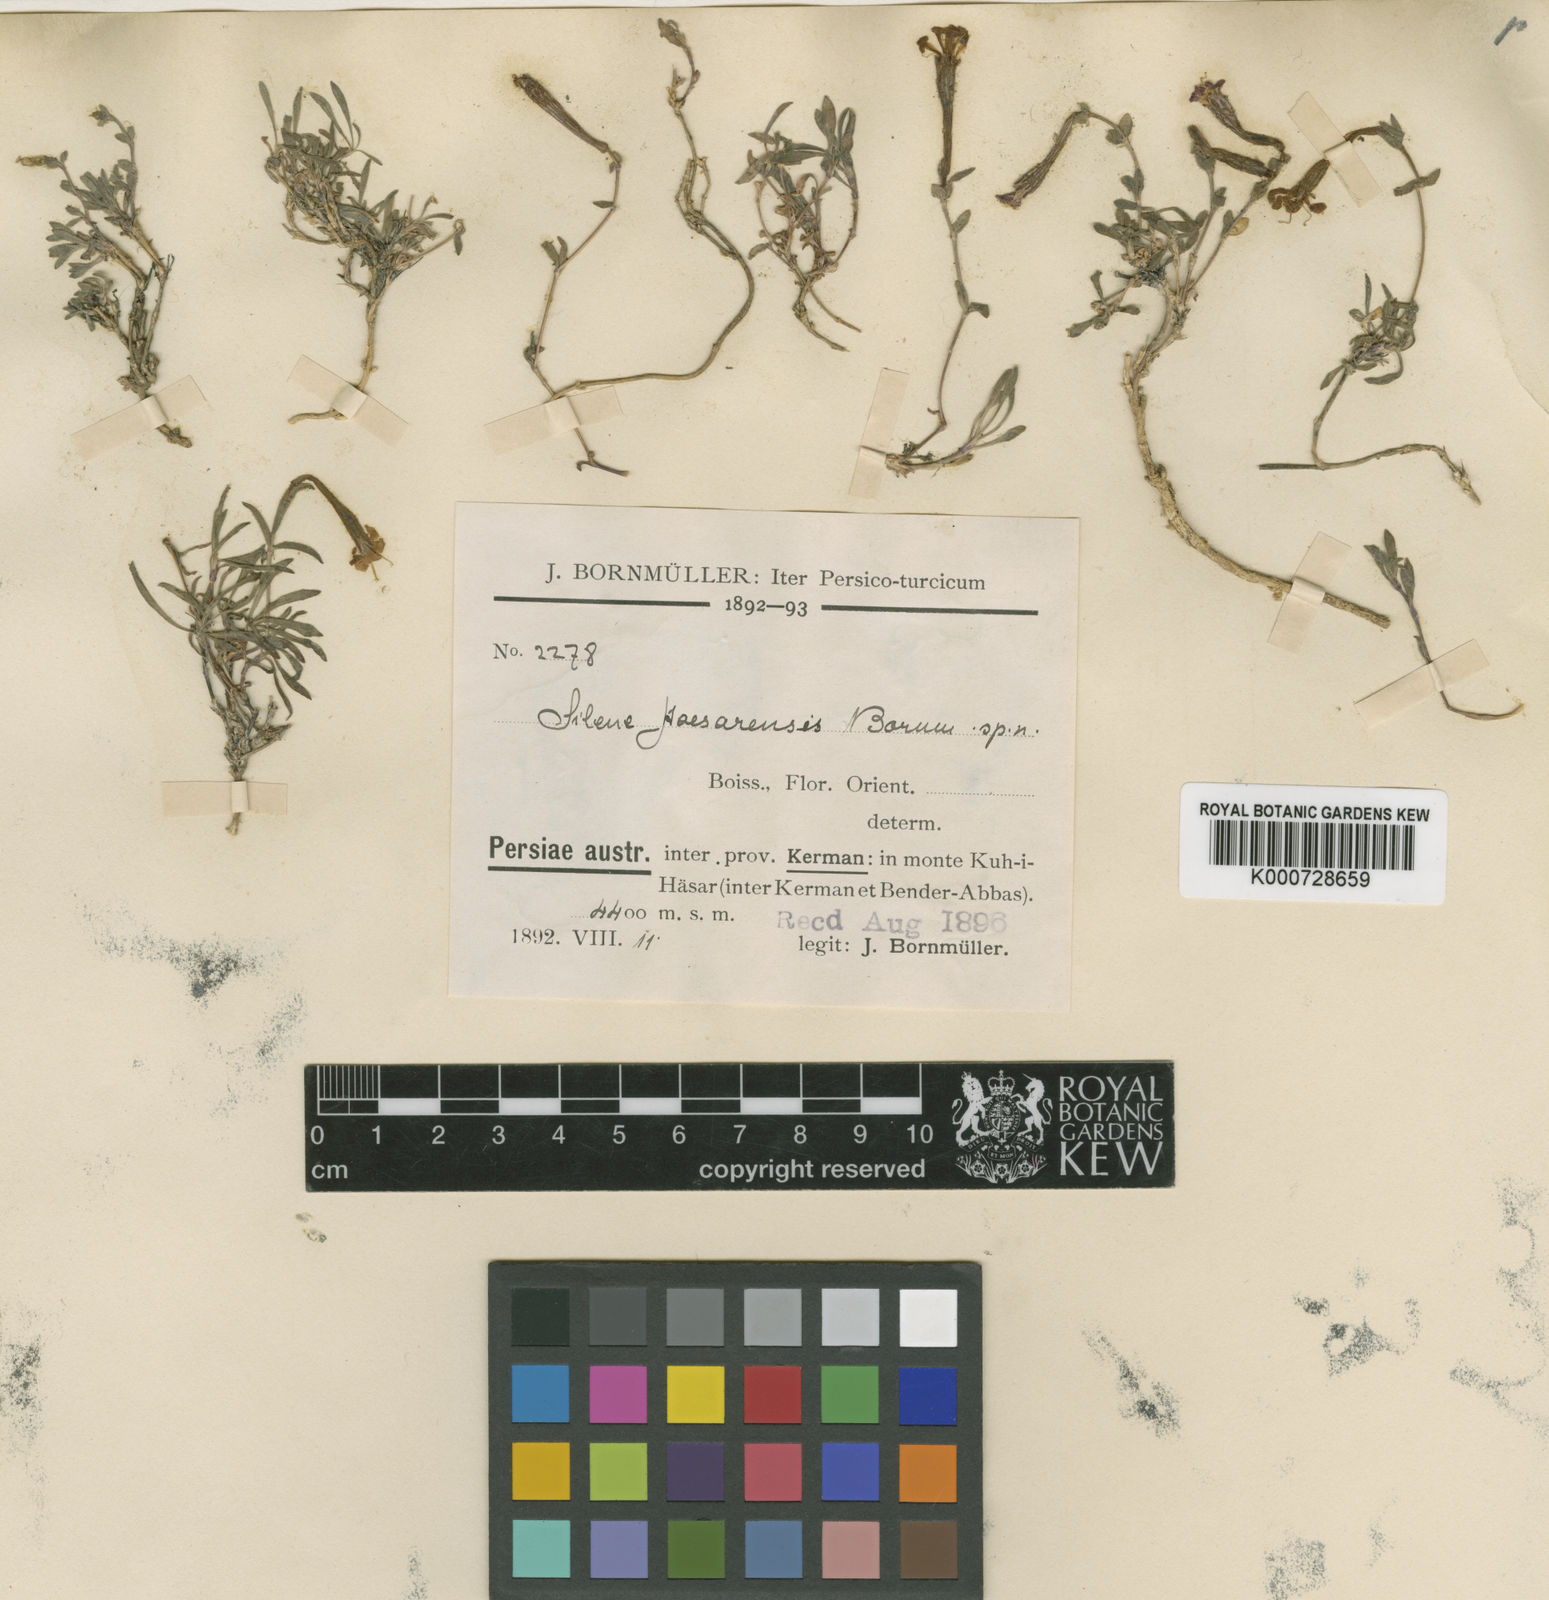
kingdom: Plantae
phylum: Tracheophyta
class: Magnoliopsida
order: Caryophyllales
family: Caryophyllaceae
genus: Silene
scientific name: Silene
